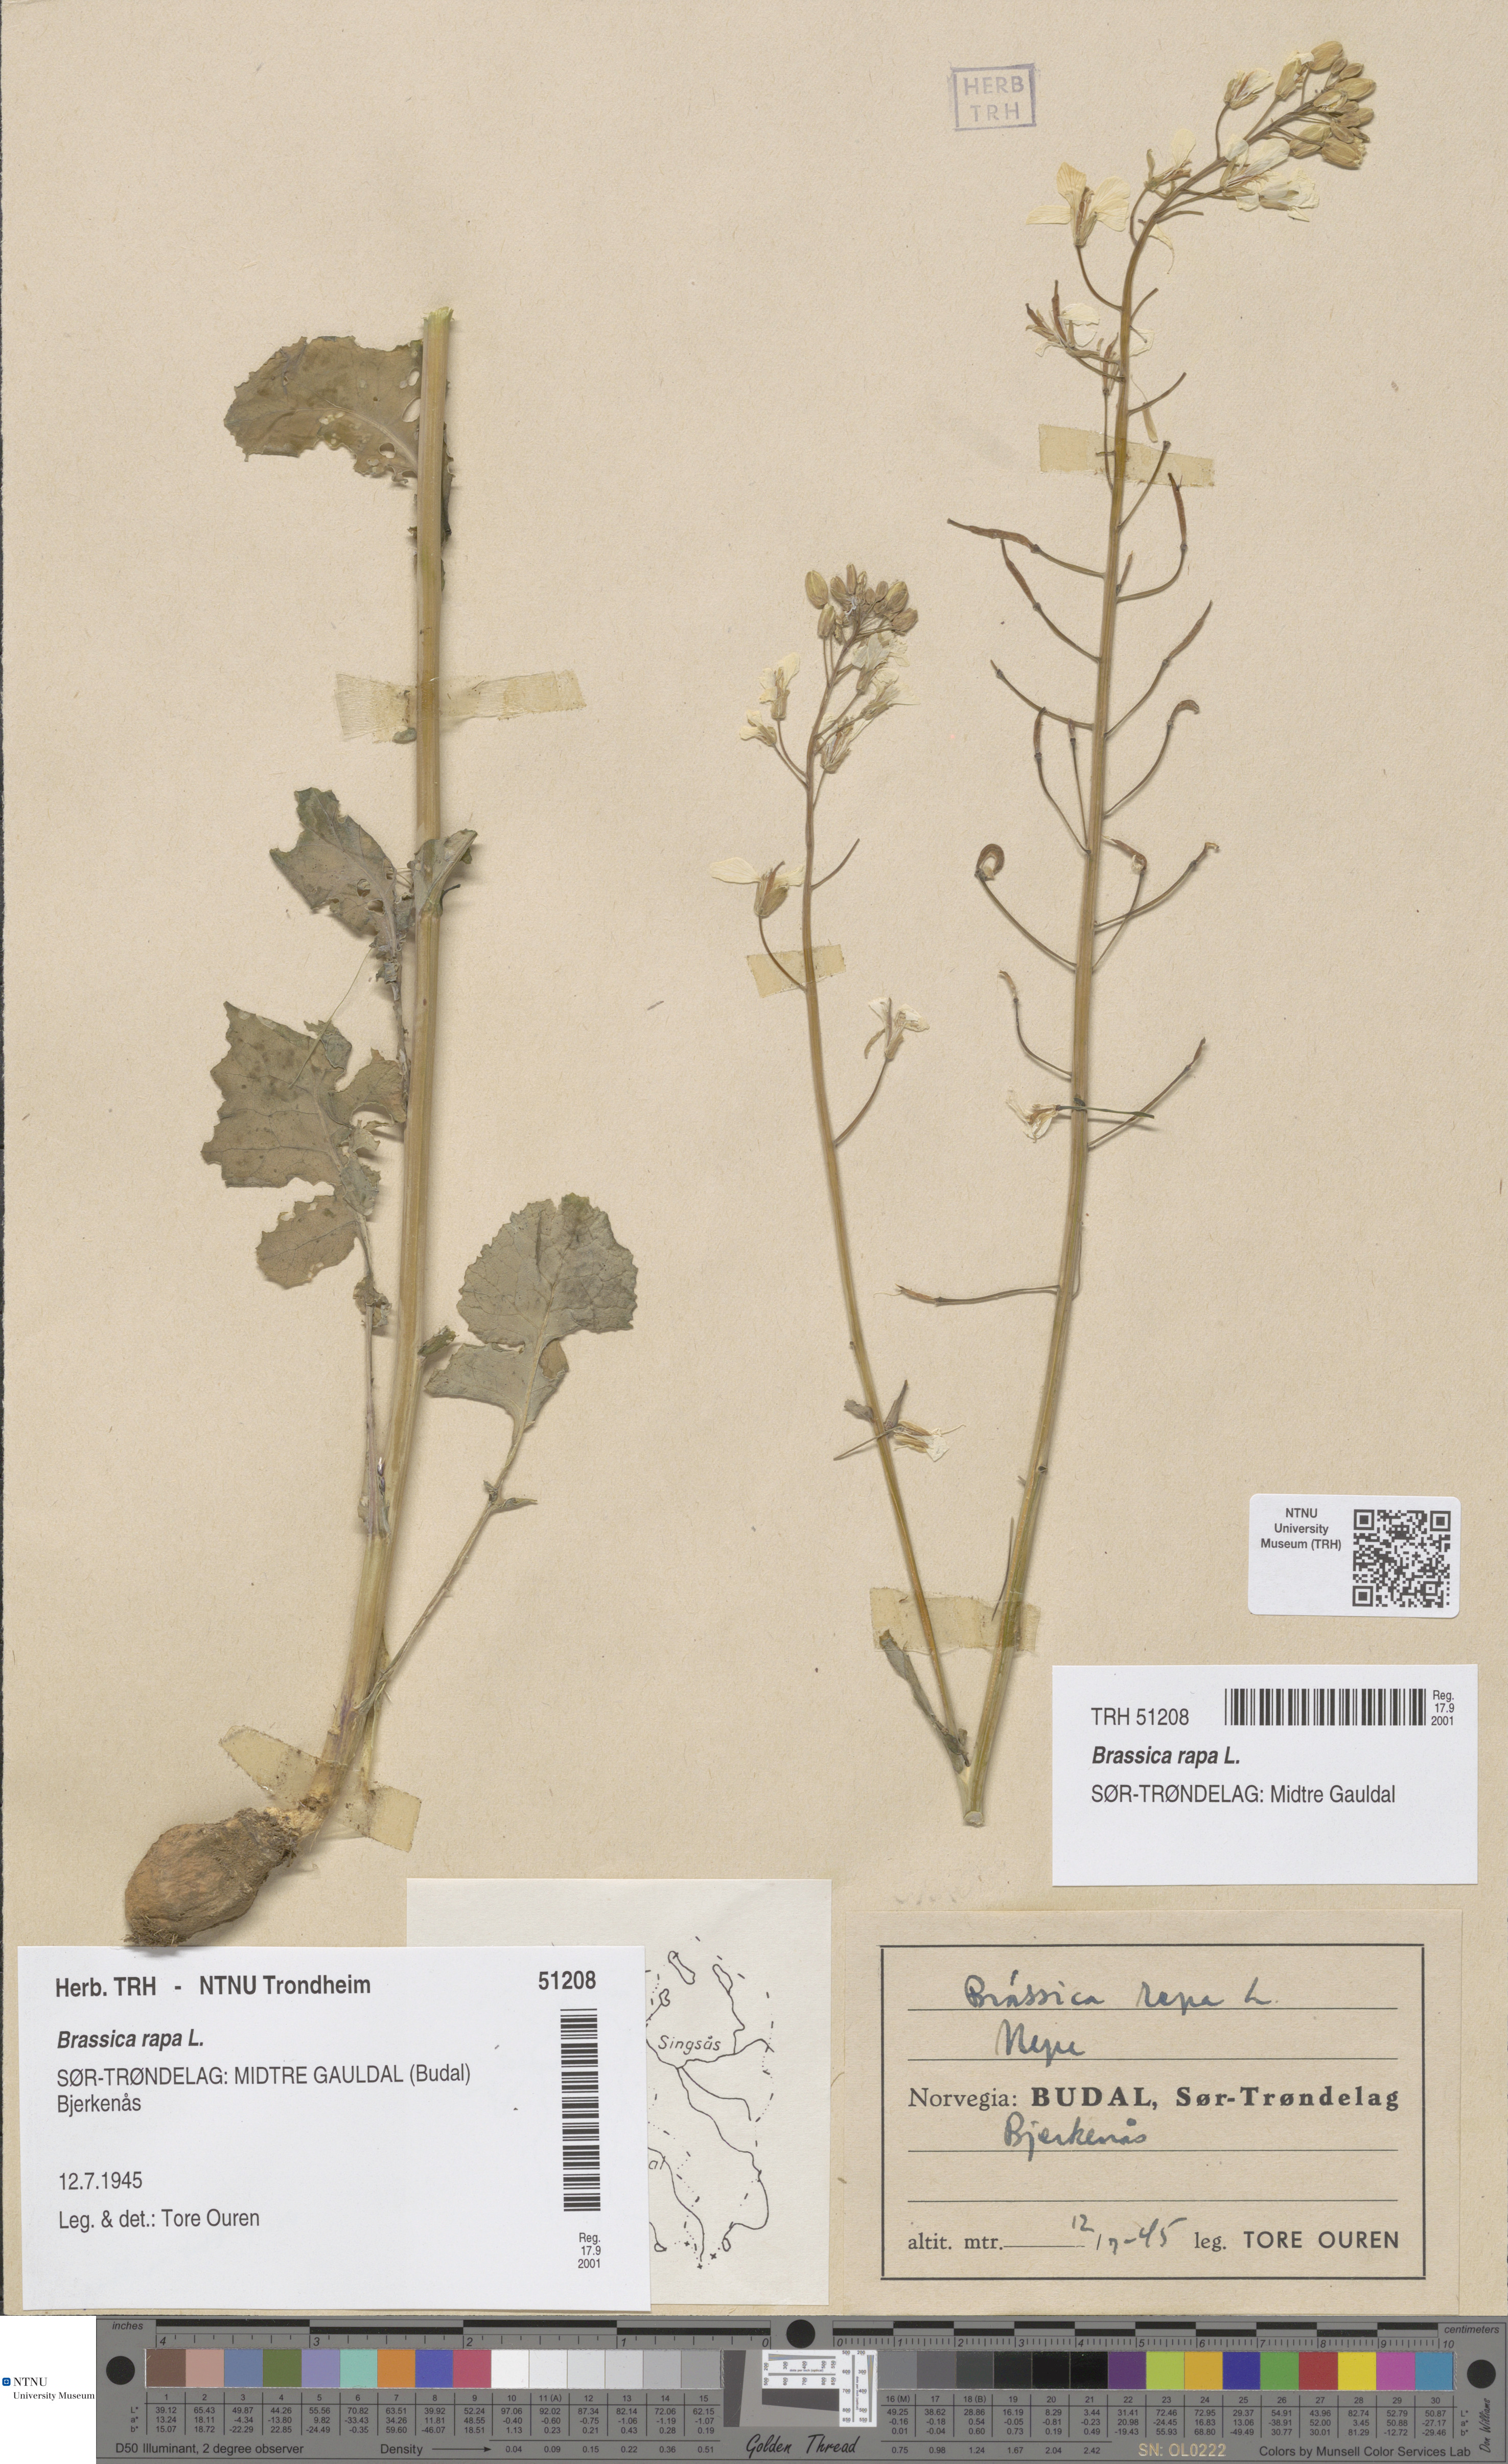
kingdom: Plantae
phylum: Tracheophyta
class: Magnoliopsida
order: Brassicales
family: Brassicaceae
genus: Brassica
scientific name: Brassica rapa
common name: Field mustard
